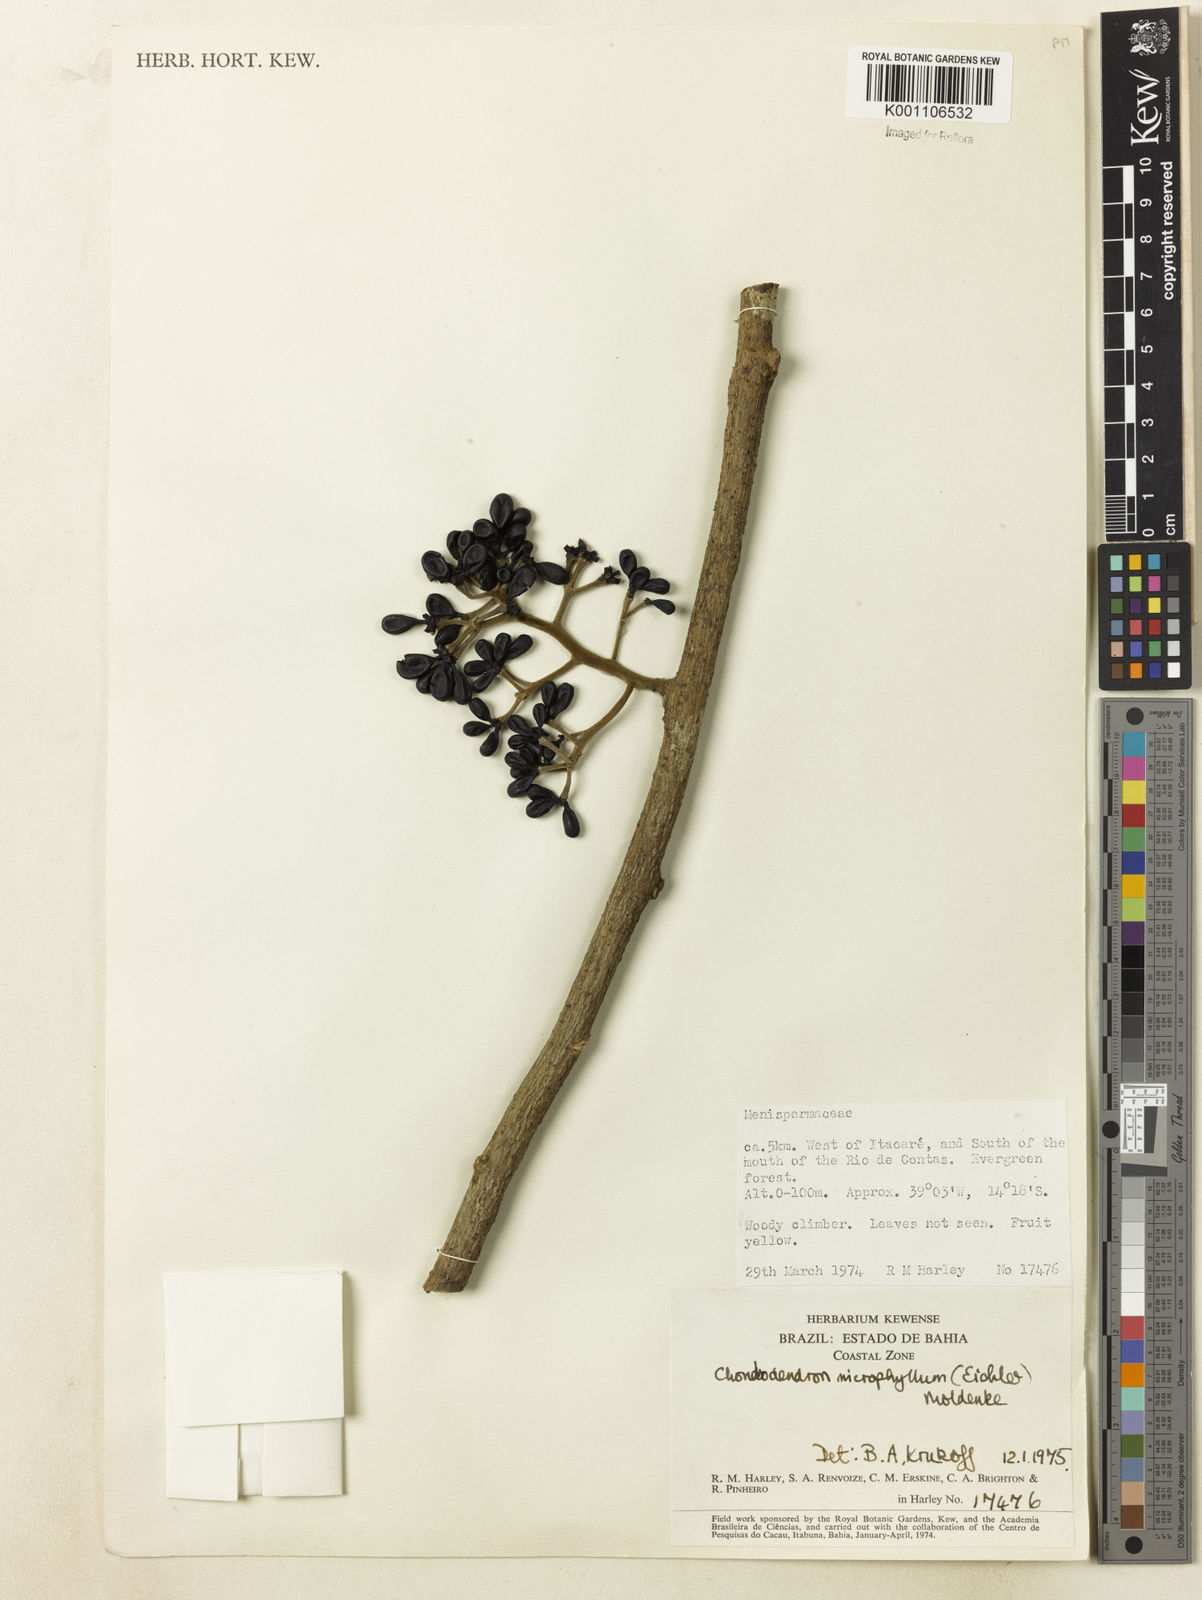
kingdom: Plantae
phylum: Tracheophyta
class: Magnoliopsida
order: Ranunculales
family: Menispermaceae
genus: Chondrodendron
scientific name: Chondrodendron microphyllum
